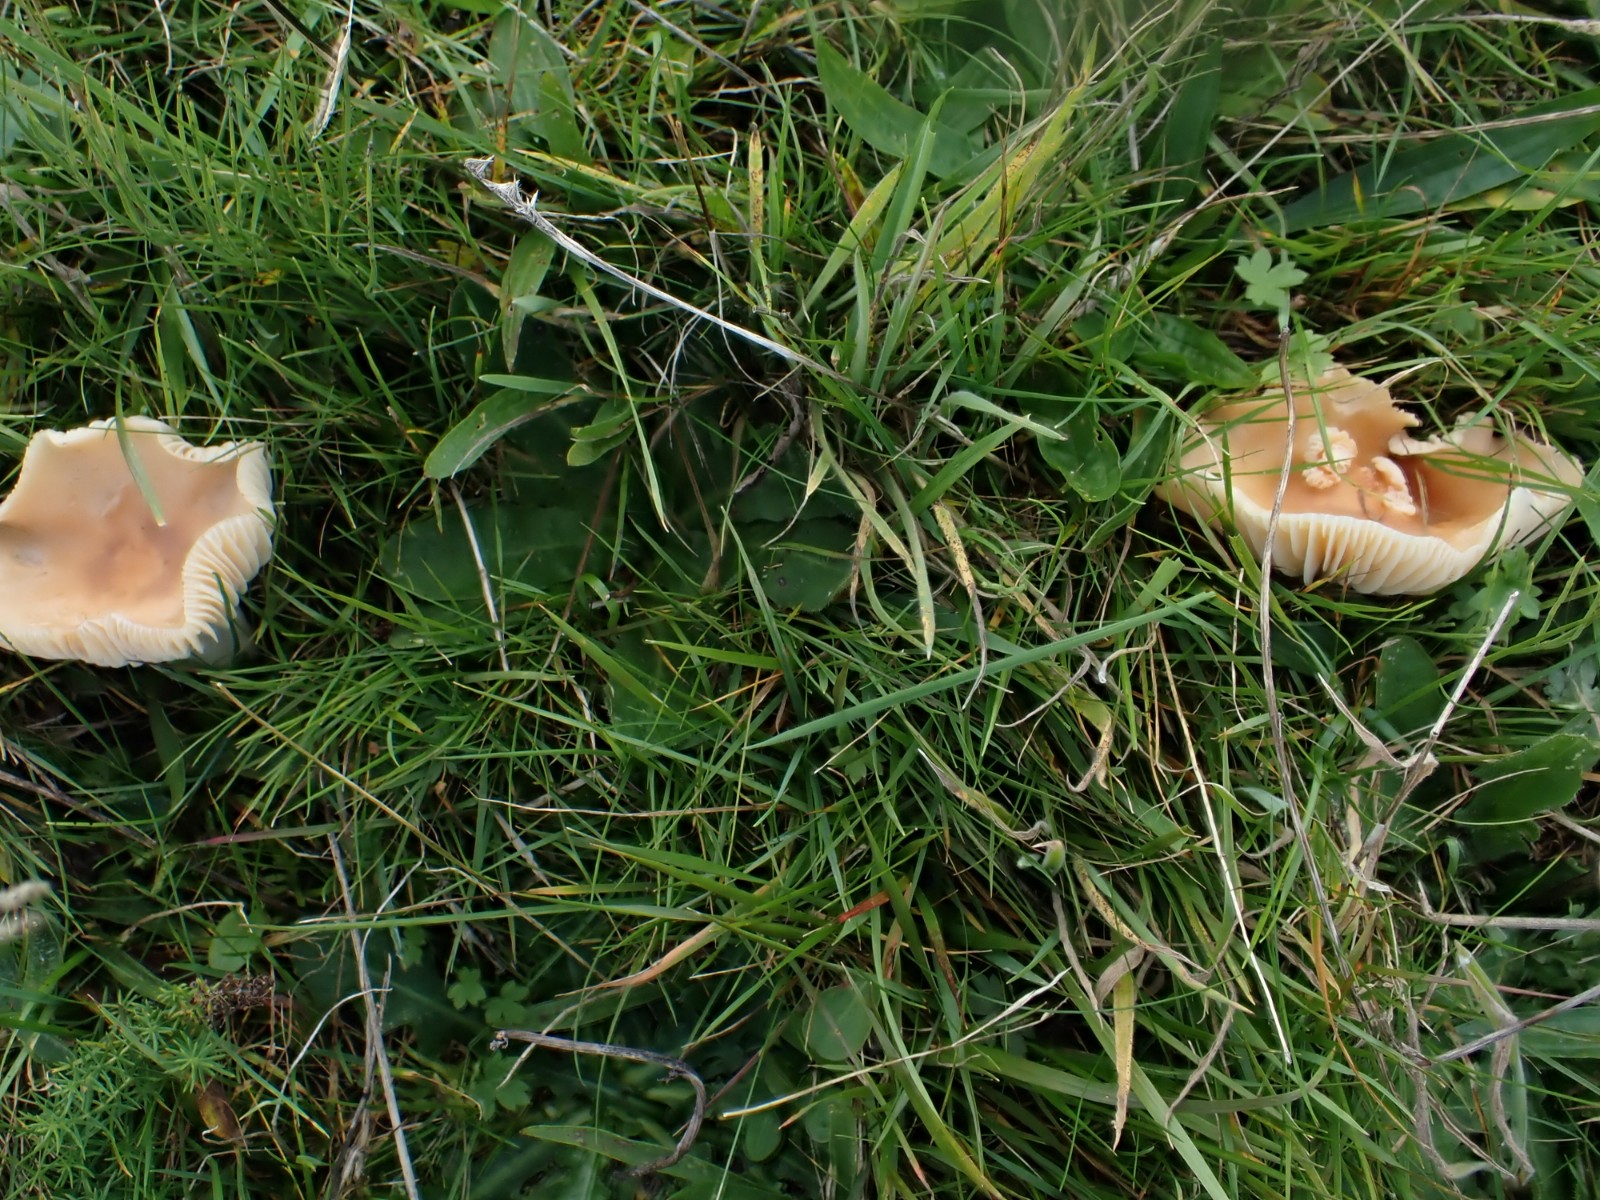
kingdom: Fungi
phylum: Basidiomycota
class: Agaricomycetes
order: Agaricales
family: Hygrophoraceae
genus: Cuphophyllus
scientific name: Cuphophyllus pratensis
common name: eng-vokshat
